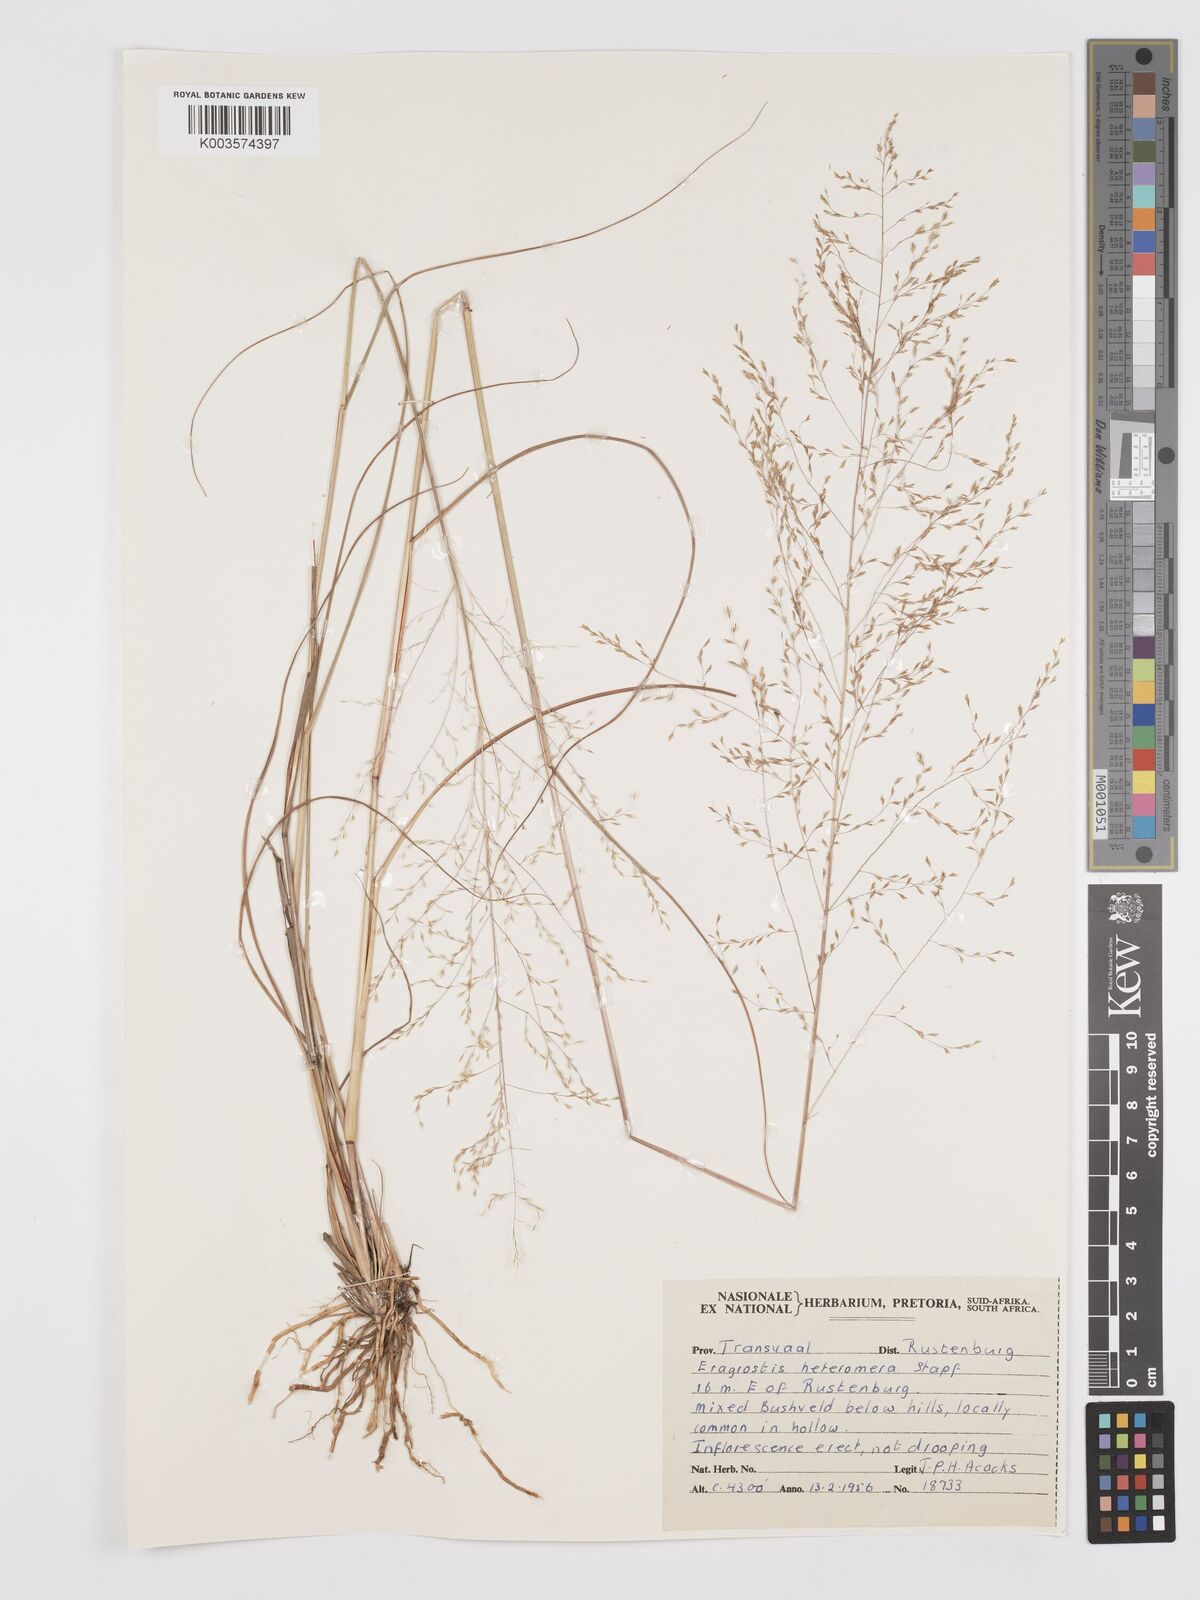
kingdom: Plantae
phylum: Tracheophyta
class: Liliopsida
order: Poales
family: Poaceae
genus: Eragrostis
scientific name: Eragrostis heteromera
